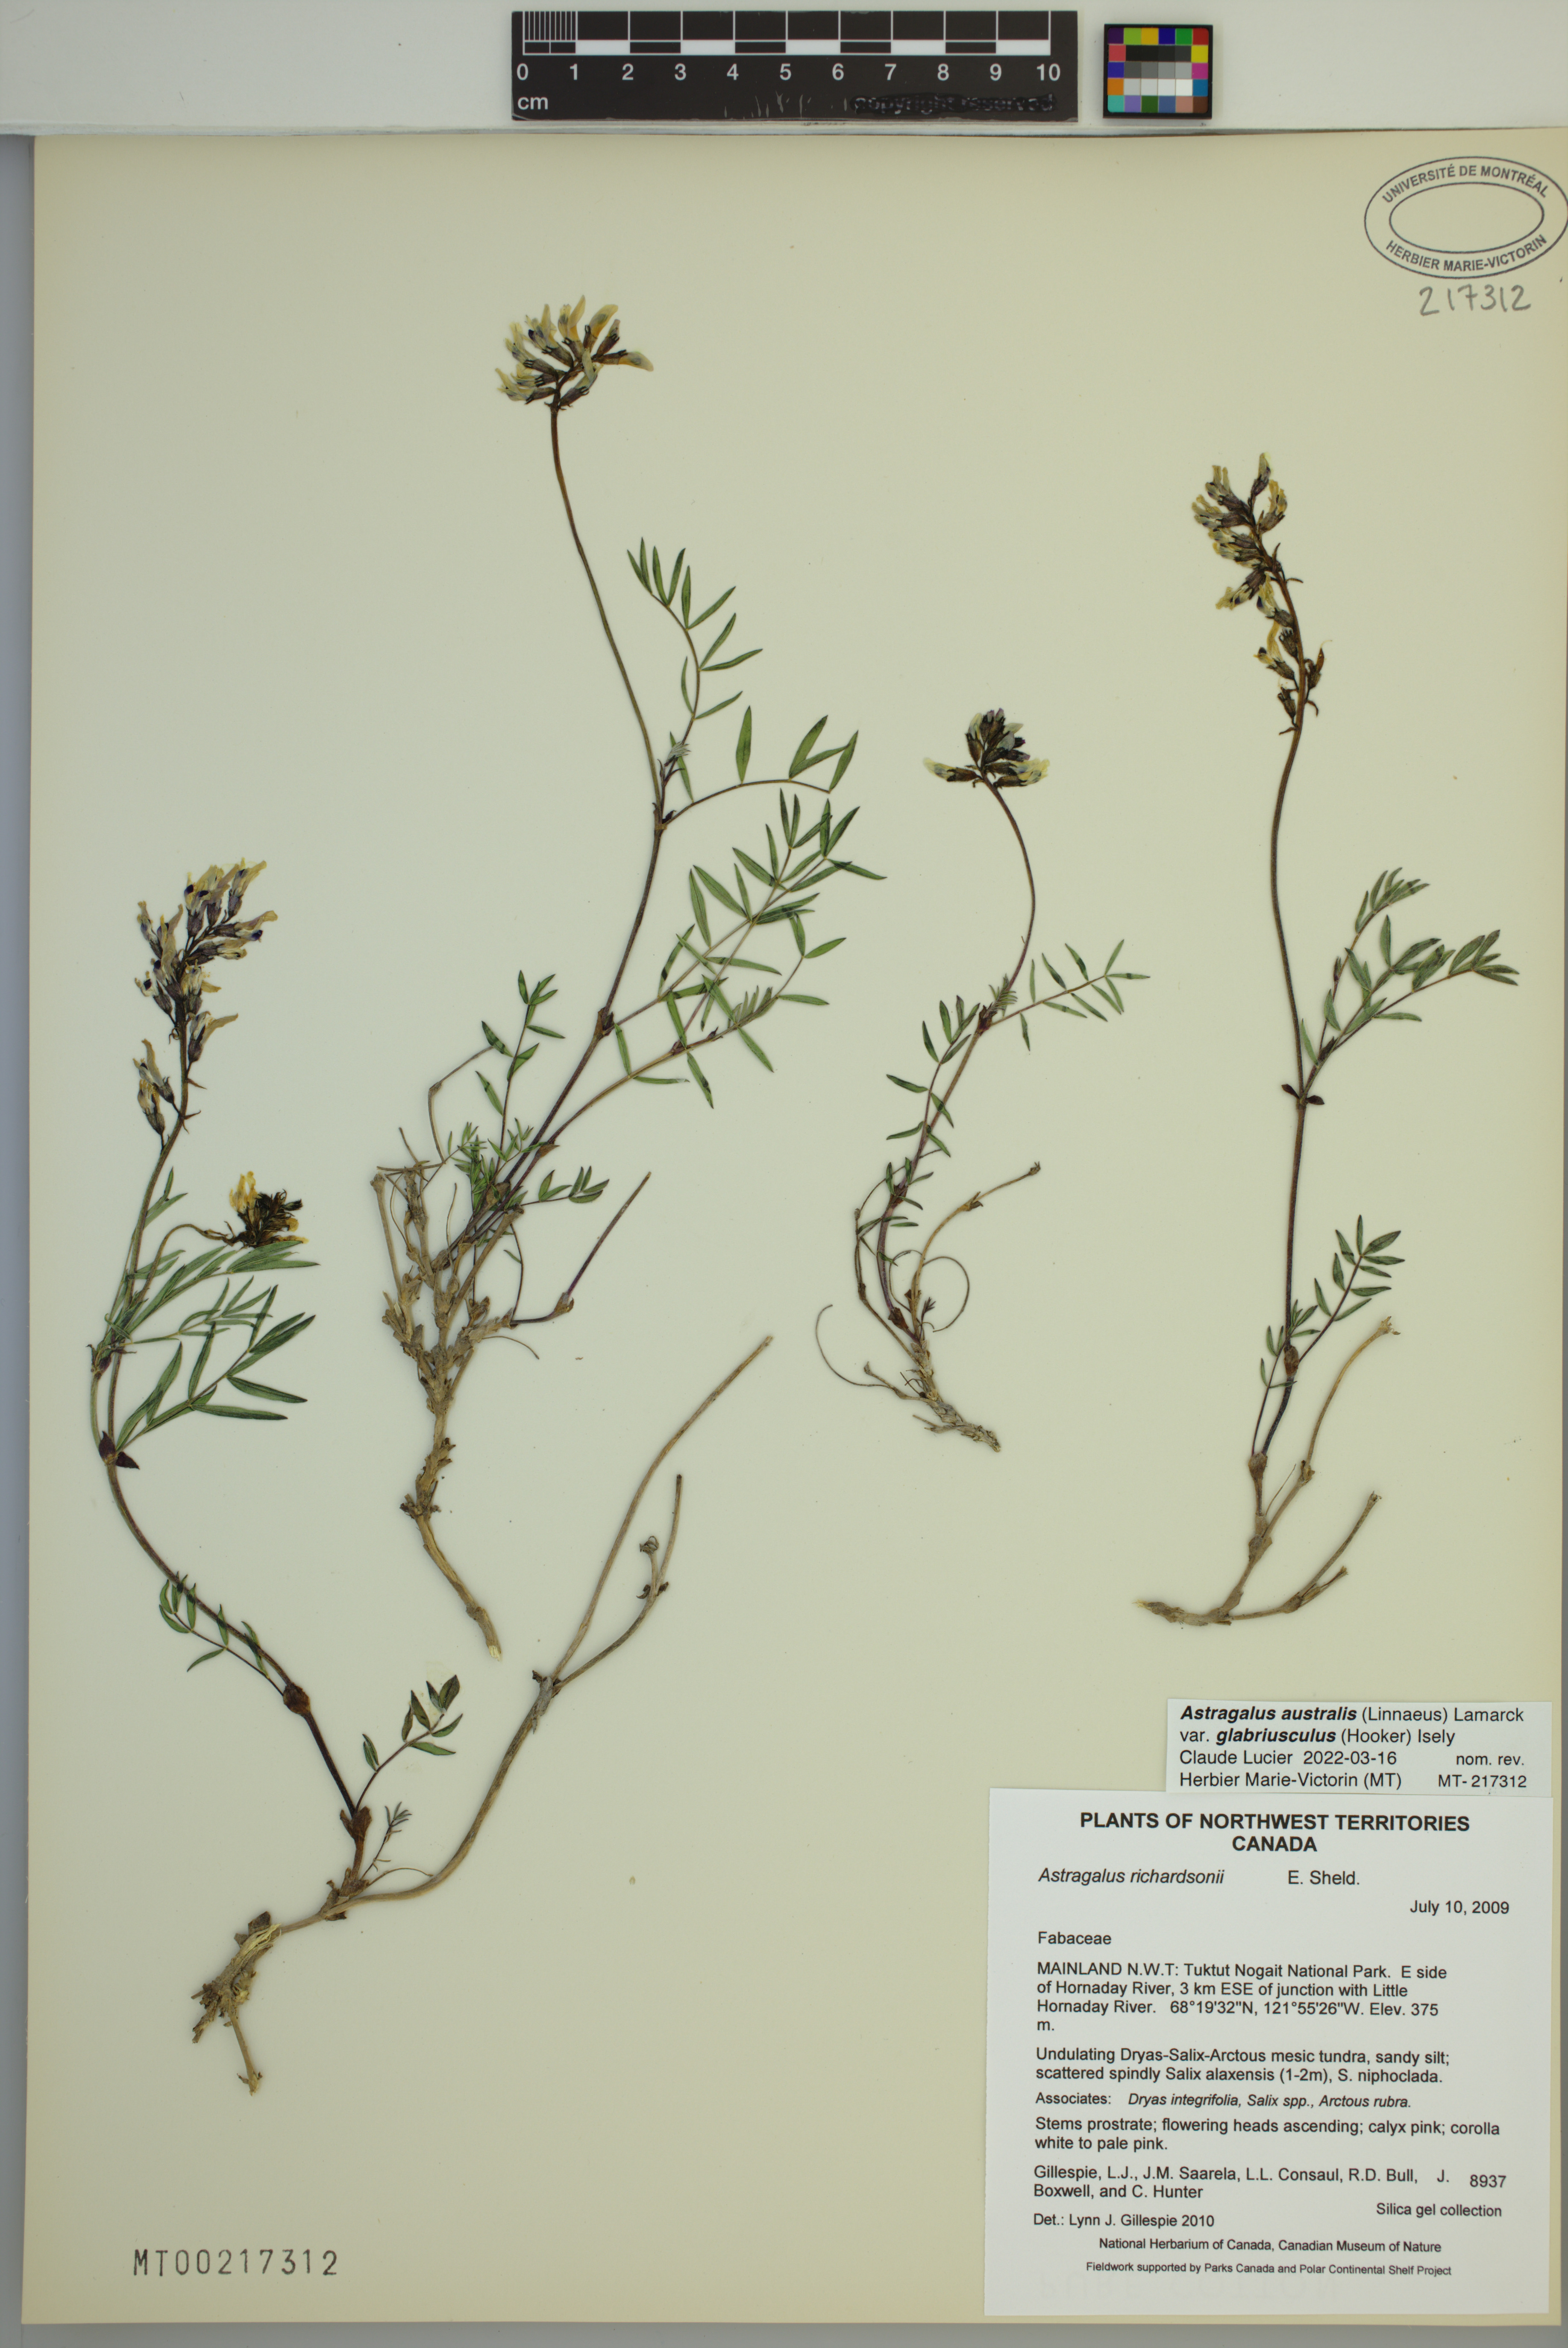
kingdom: Plantae
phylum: Tracheophyta
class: Magnoliopsida
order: Fabales
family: Fabaceae
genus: Astragalus
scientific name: Astragalus aboriginorum
